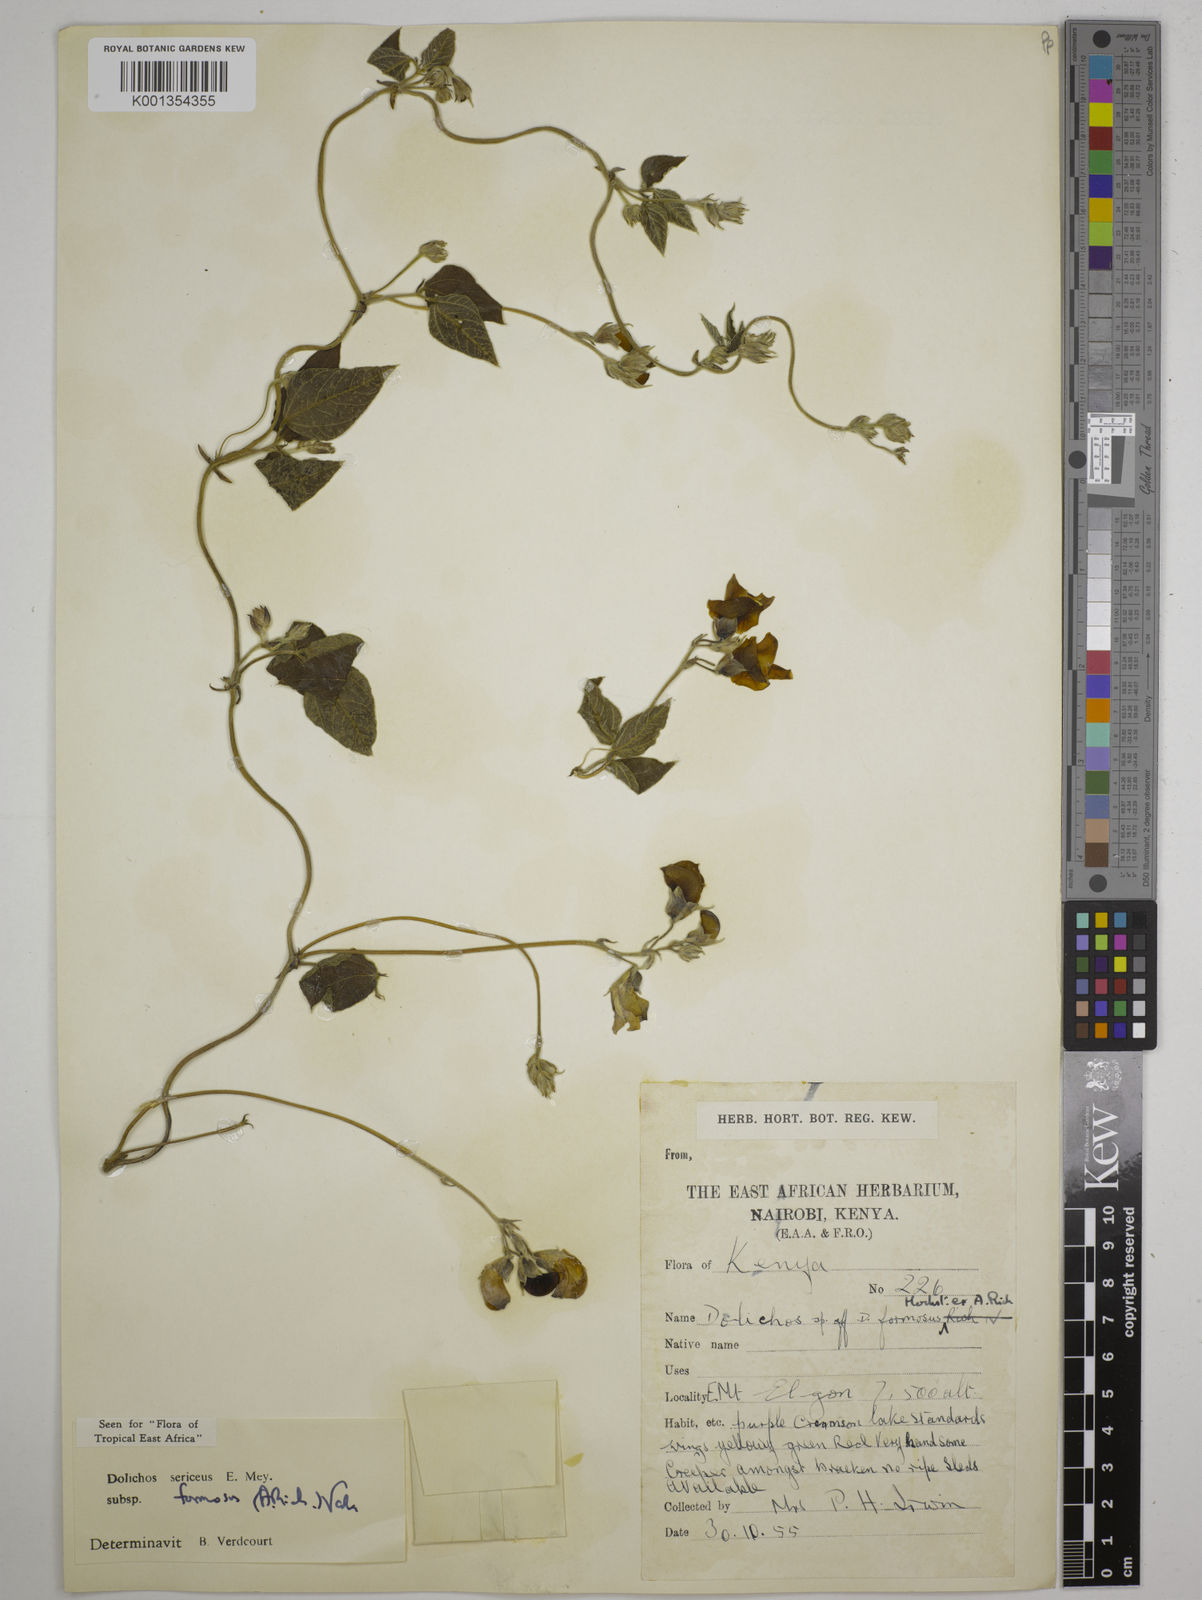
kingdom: Plantae
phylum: Tracheophyta
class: Magnoliopsida
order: Fabales
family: Fabaceae
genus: Dolichos
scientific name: Dolichos
